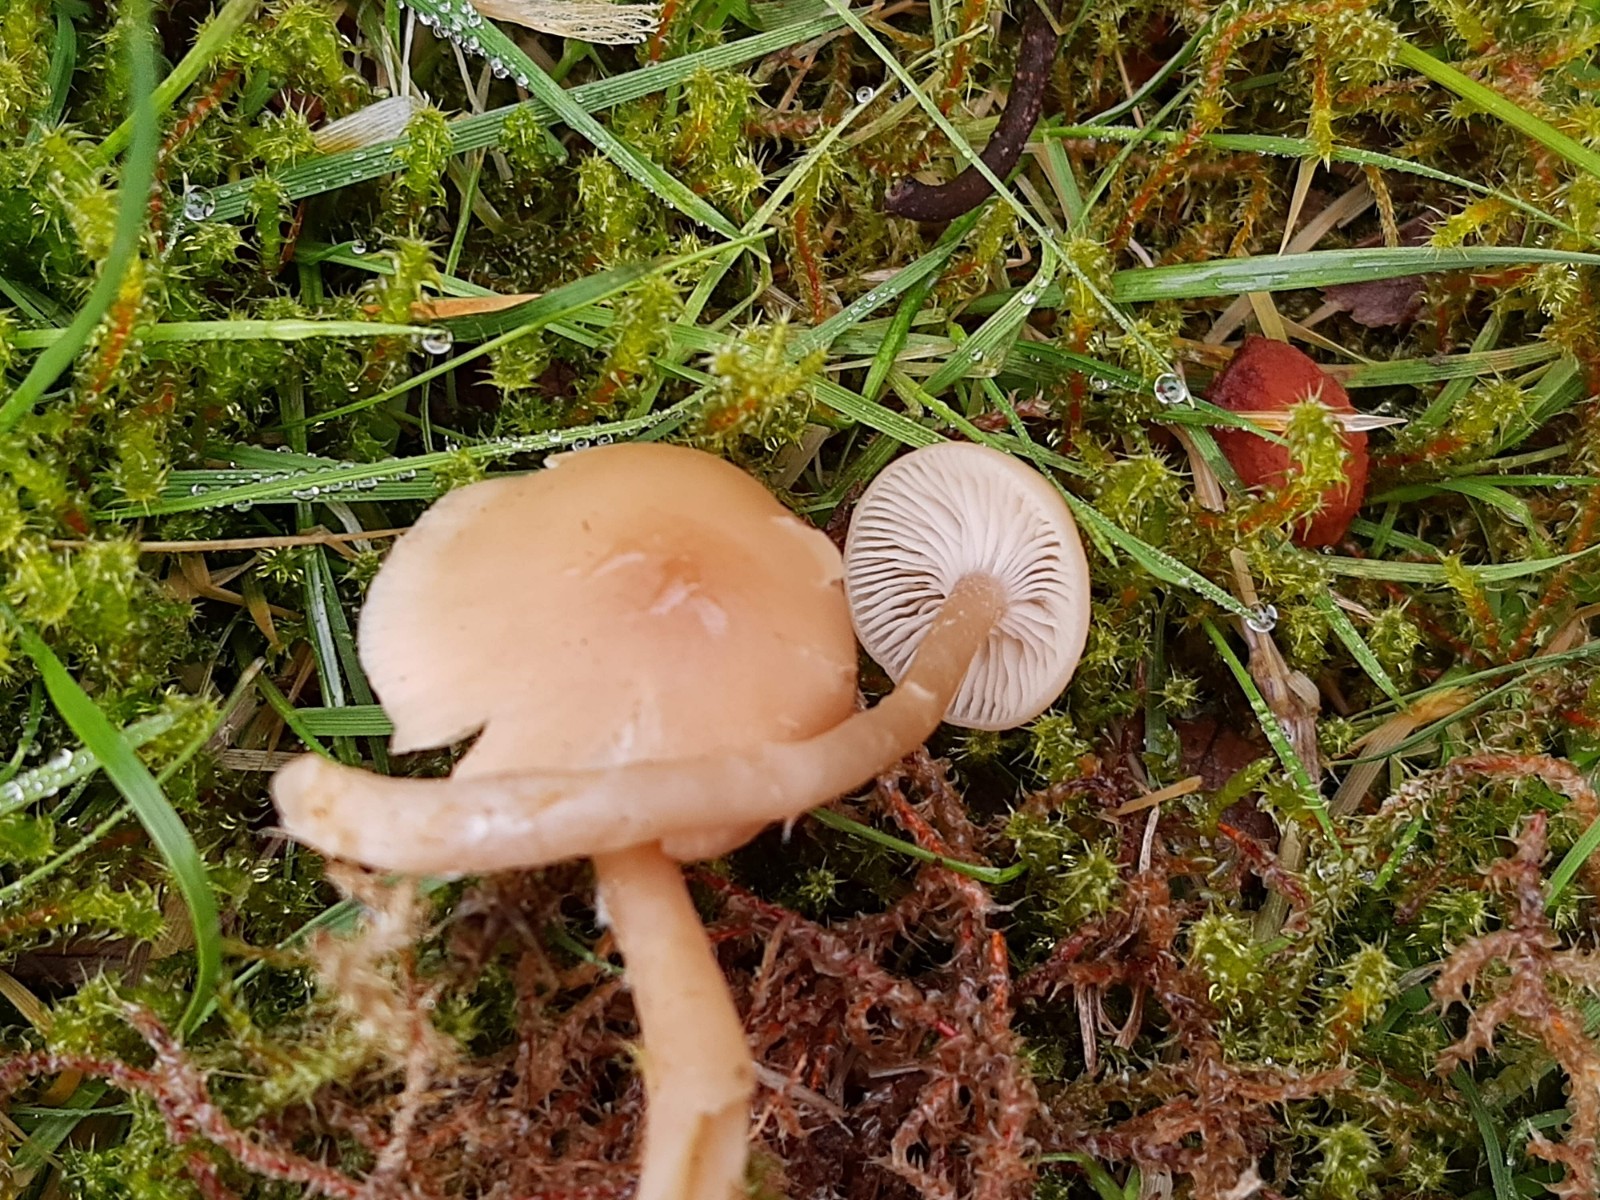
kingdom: Fungi
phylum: Basidiomycota
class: Agaricomycetes
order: Agaricales
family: Tricholomataceae
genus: Clitocybe
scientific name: Clitocybe fragrans
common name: vellugtende tragthat
